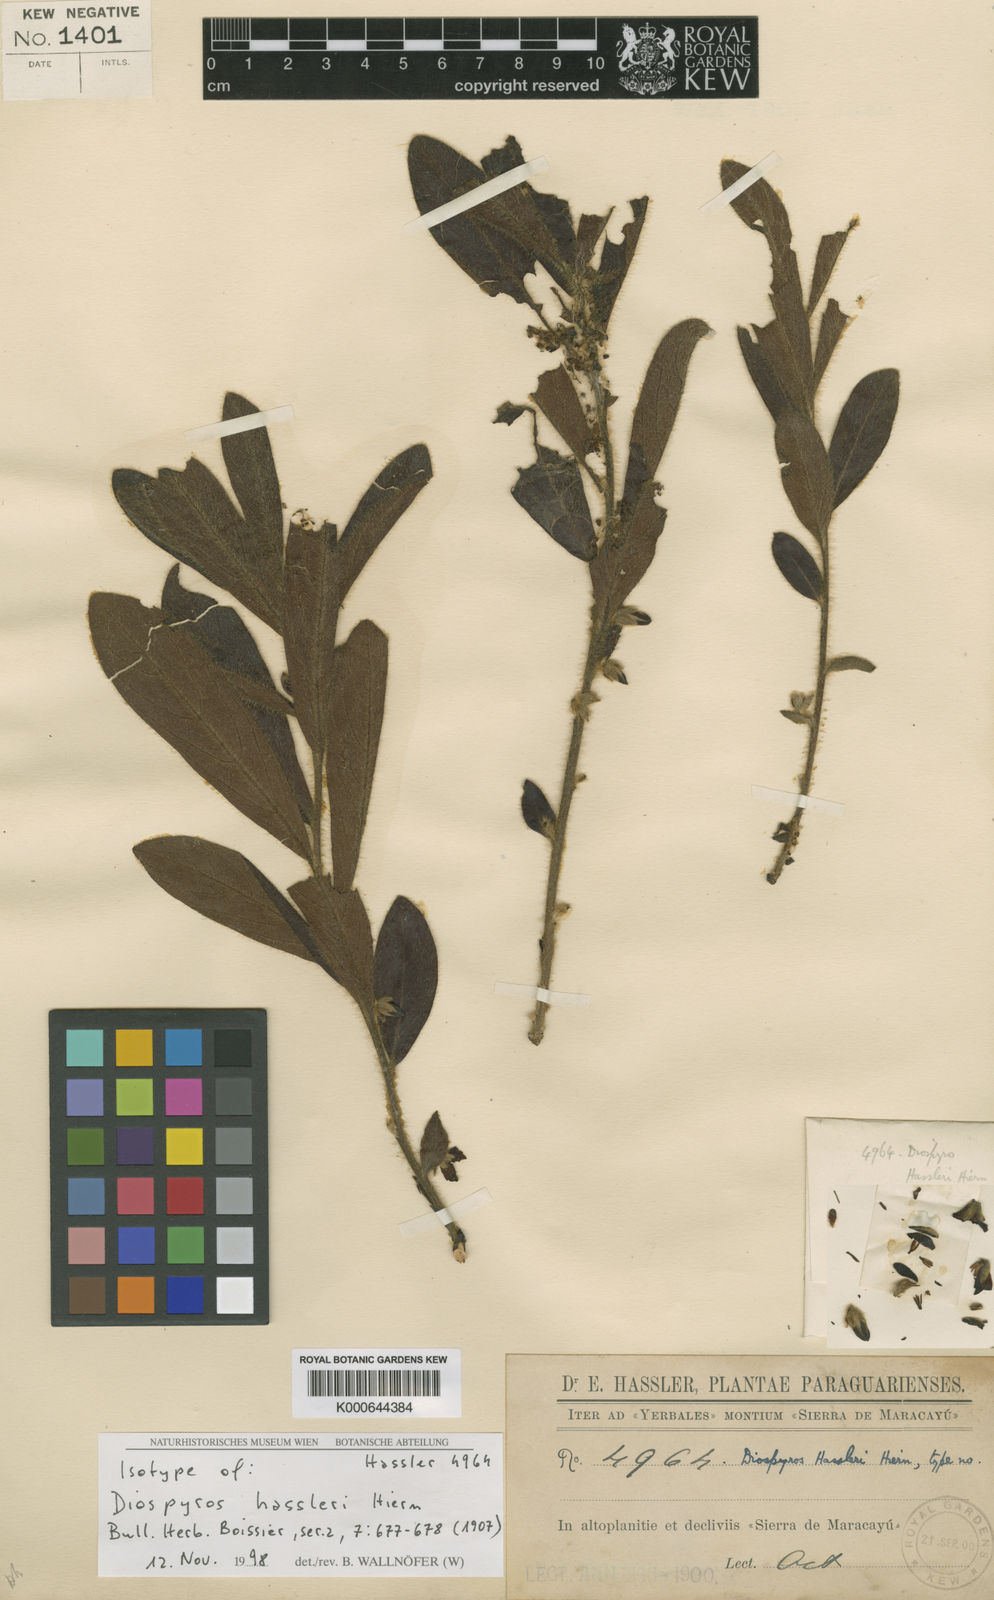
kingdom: Plantae
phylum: Tracheophyta
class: Magnoliopsida
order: Ericales
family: Ebenaceae
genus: Diospyros
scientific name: Diospyros hassleri
